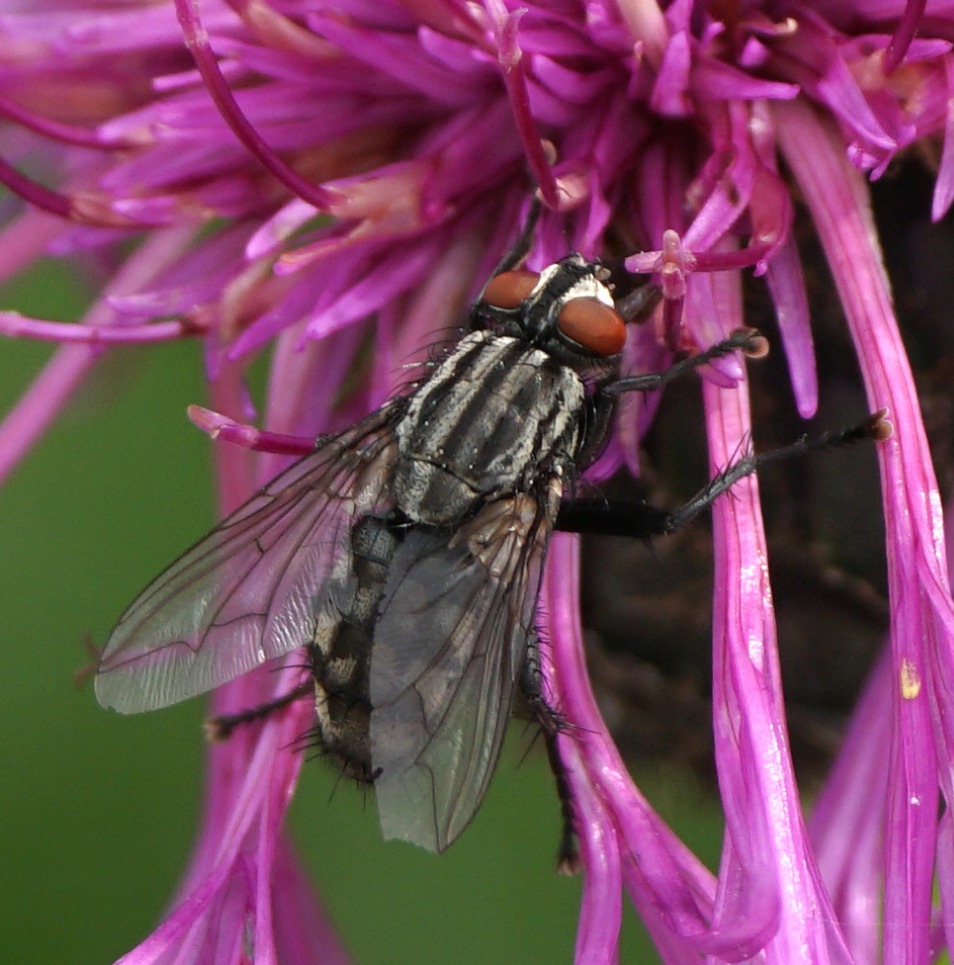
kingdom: Animalia
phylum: Arthropoda
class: Insecta
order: Diptera
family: Sarcophagidae
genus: Sarcophaga
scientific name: Sarcophaga
